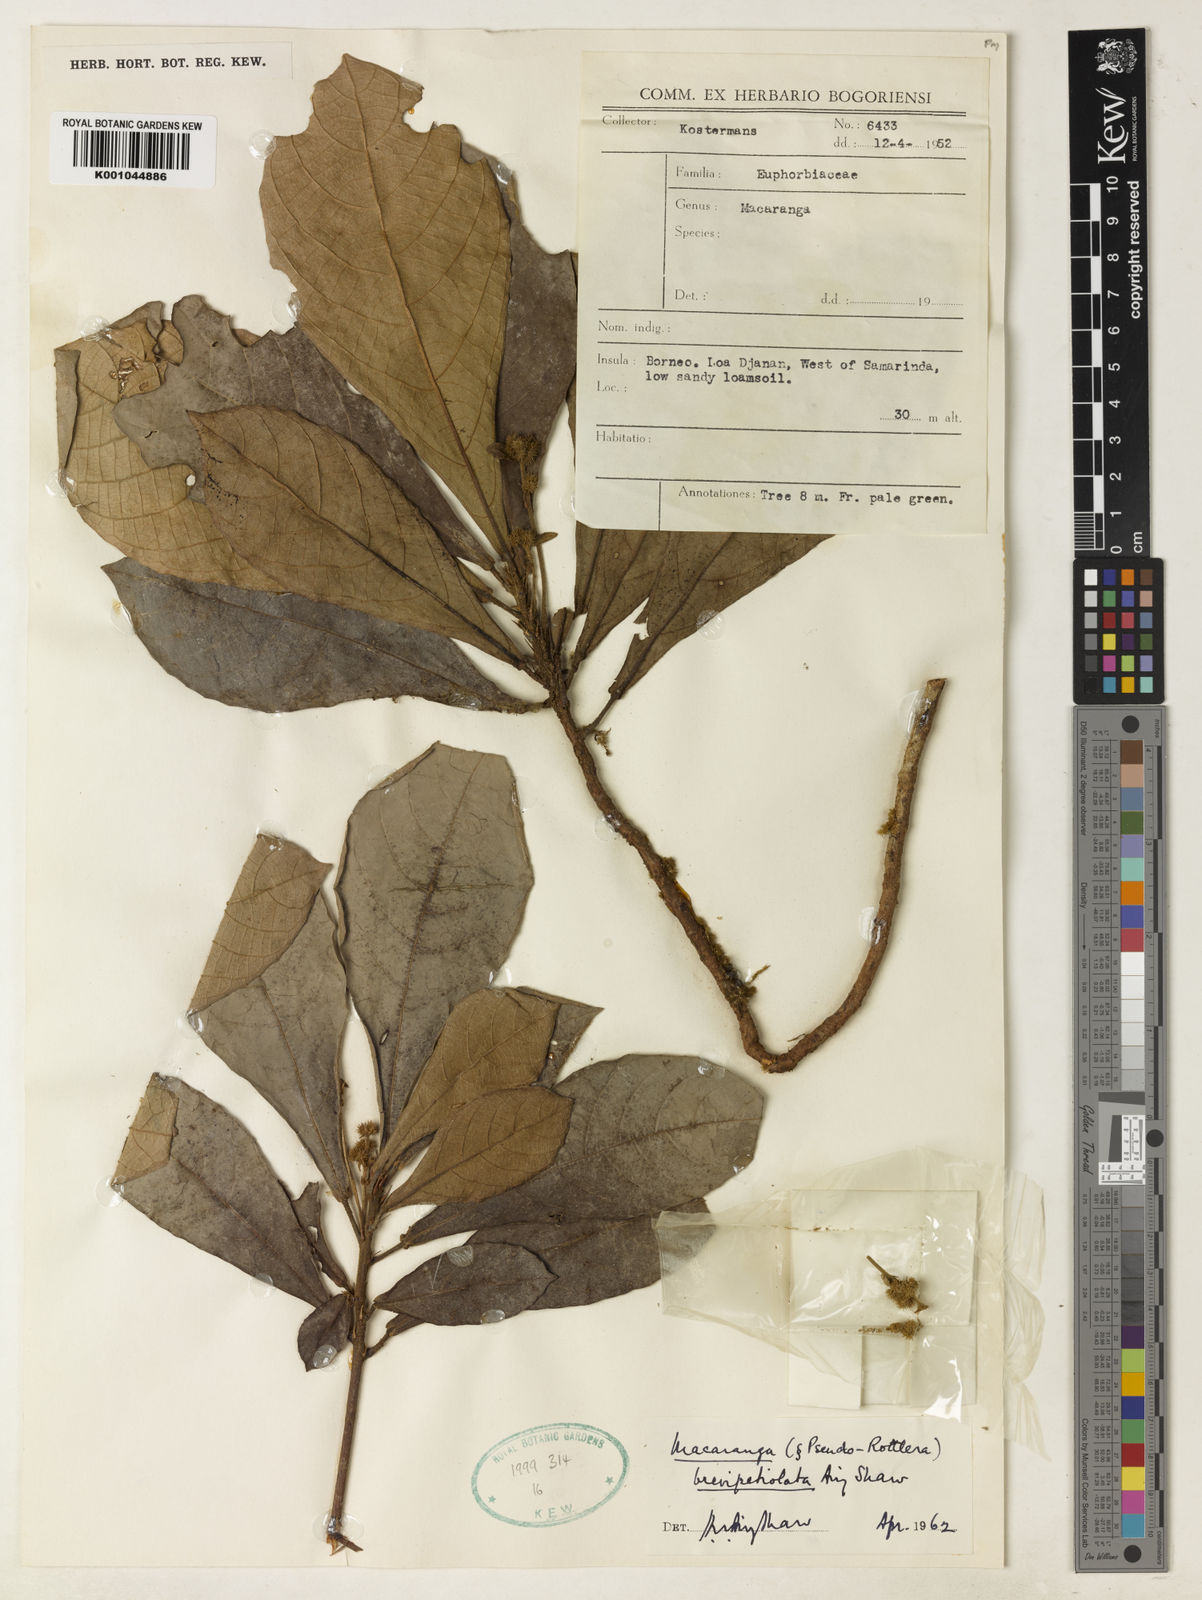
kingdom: Plantae
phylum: Tracheophyta
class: Magnoliopsida
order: Malpighiales
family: Euphorbiaceae
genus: Macaranga
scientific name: Macaranga brevipetiolata
